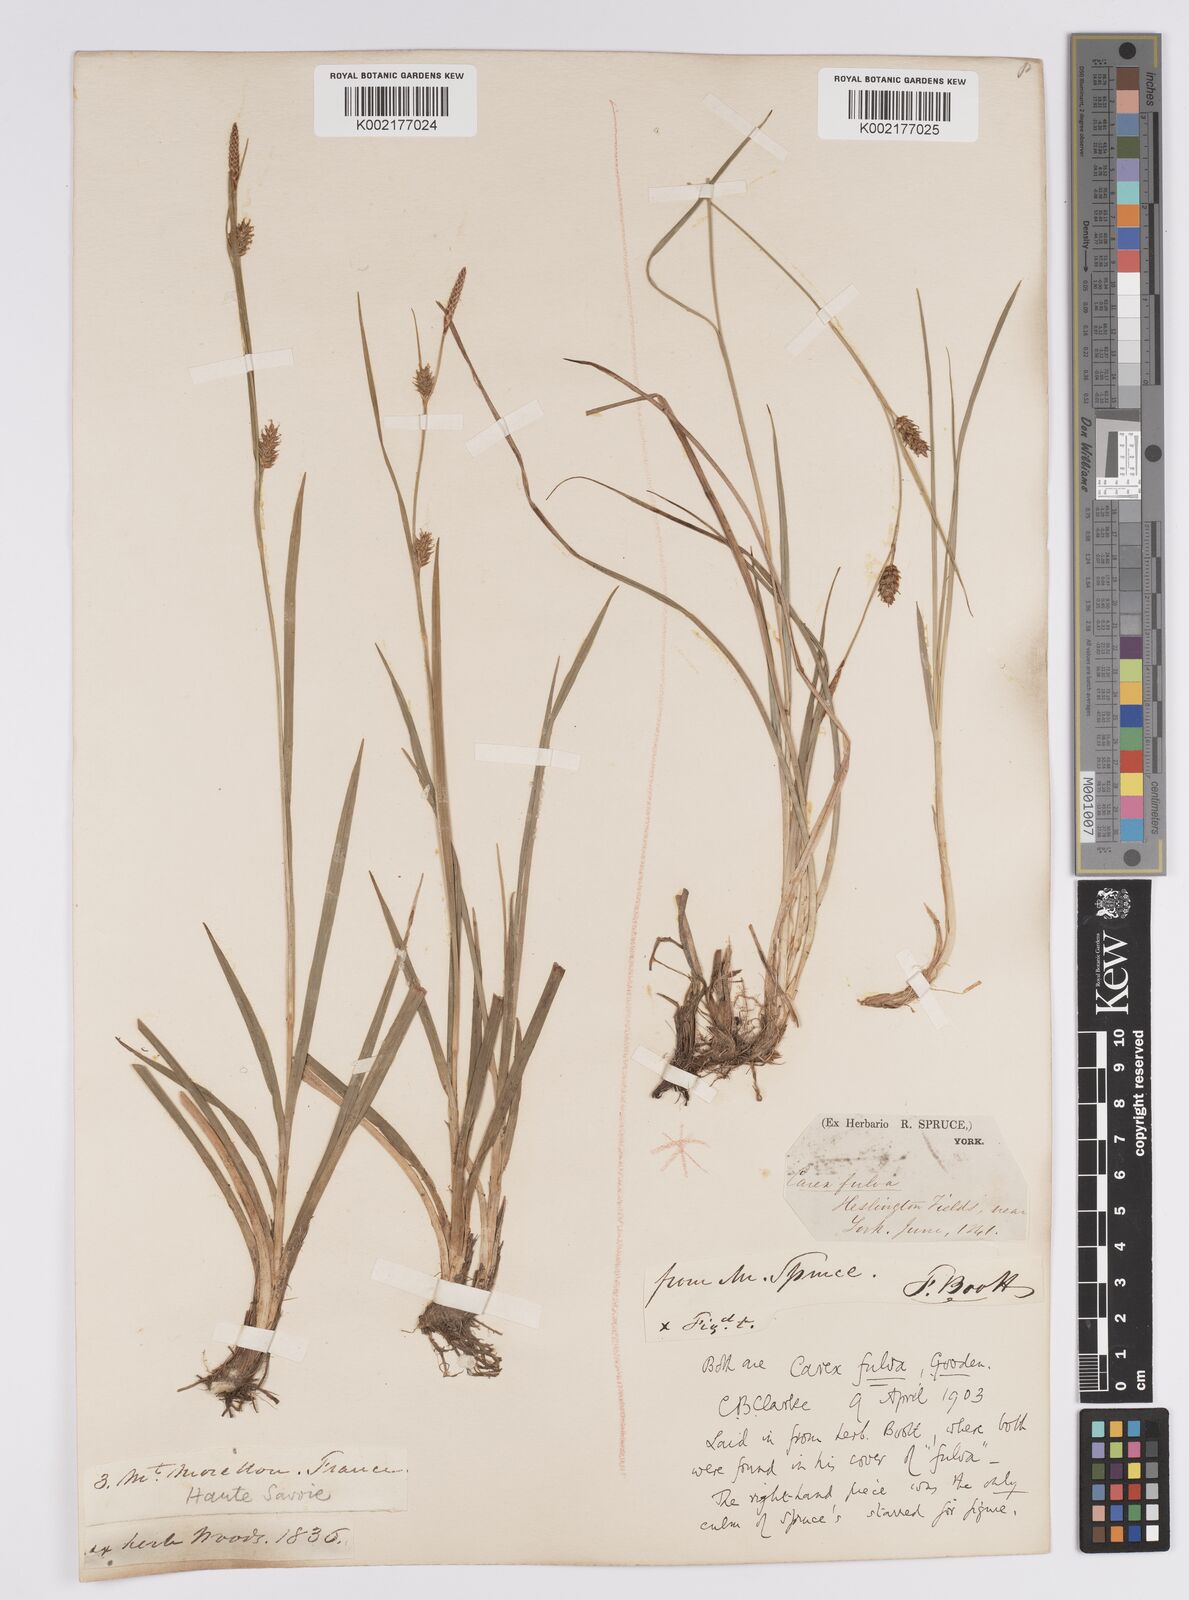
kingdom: Plantae
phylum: Tracheophyta
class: Liliopsida
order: Poales
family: Cyperaceae
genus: Carex
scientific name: Carex hostiana
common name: Tawny sedge
